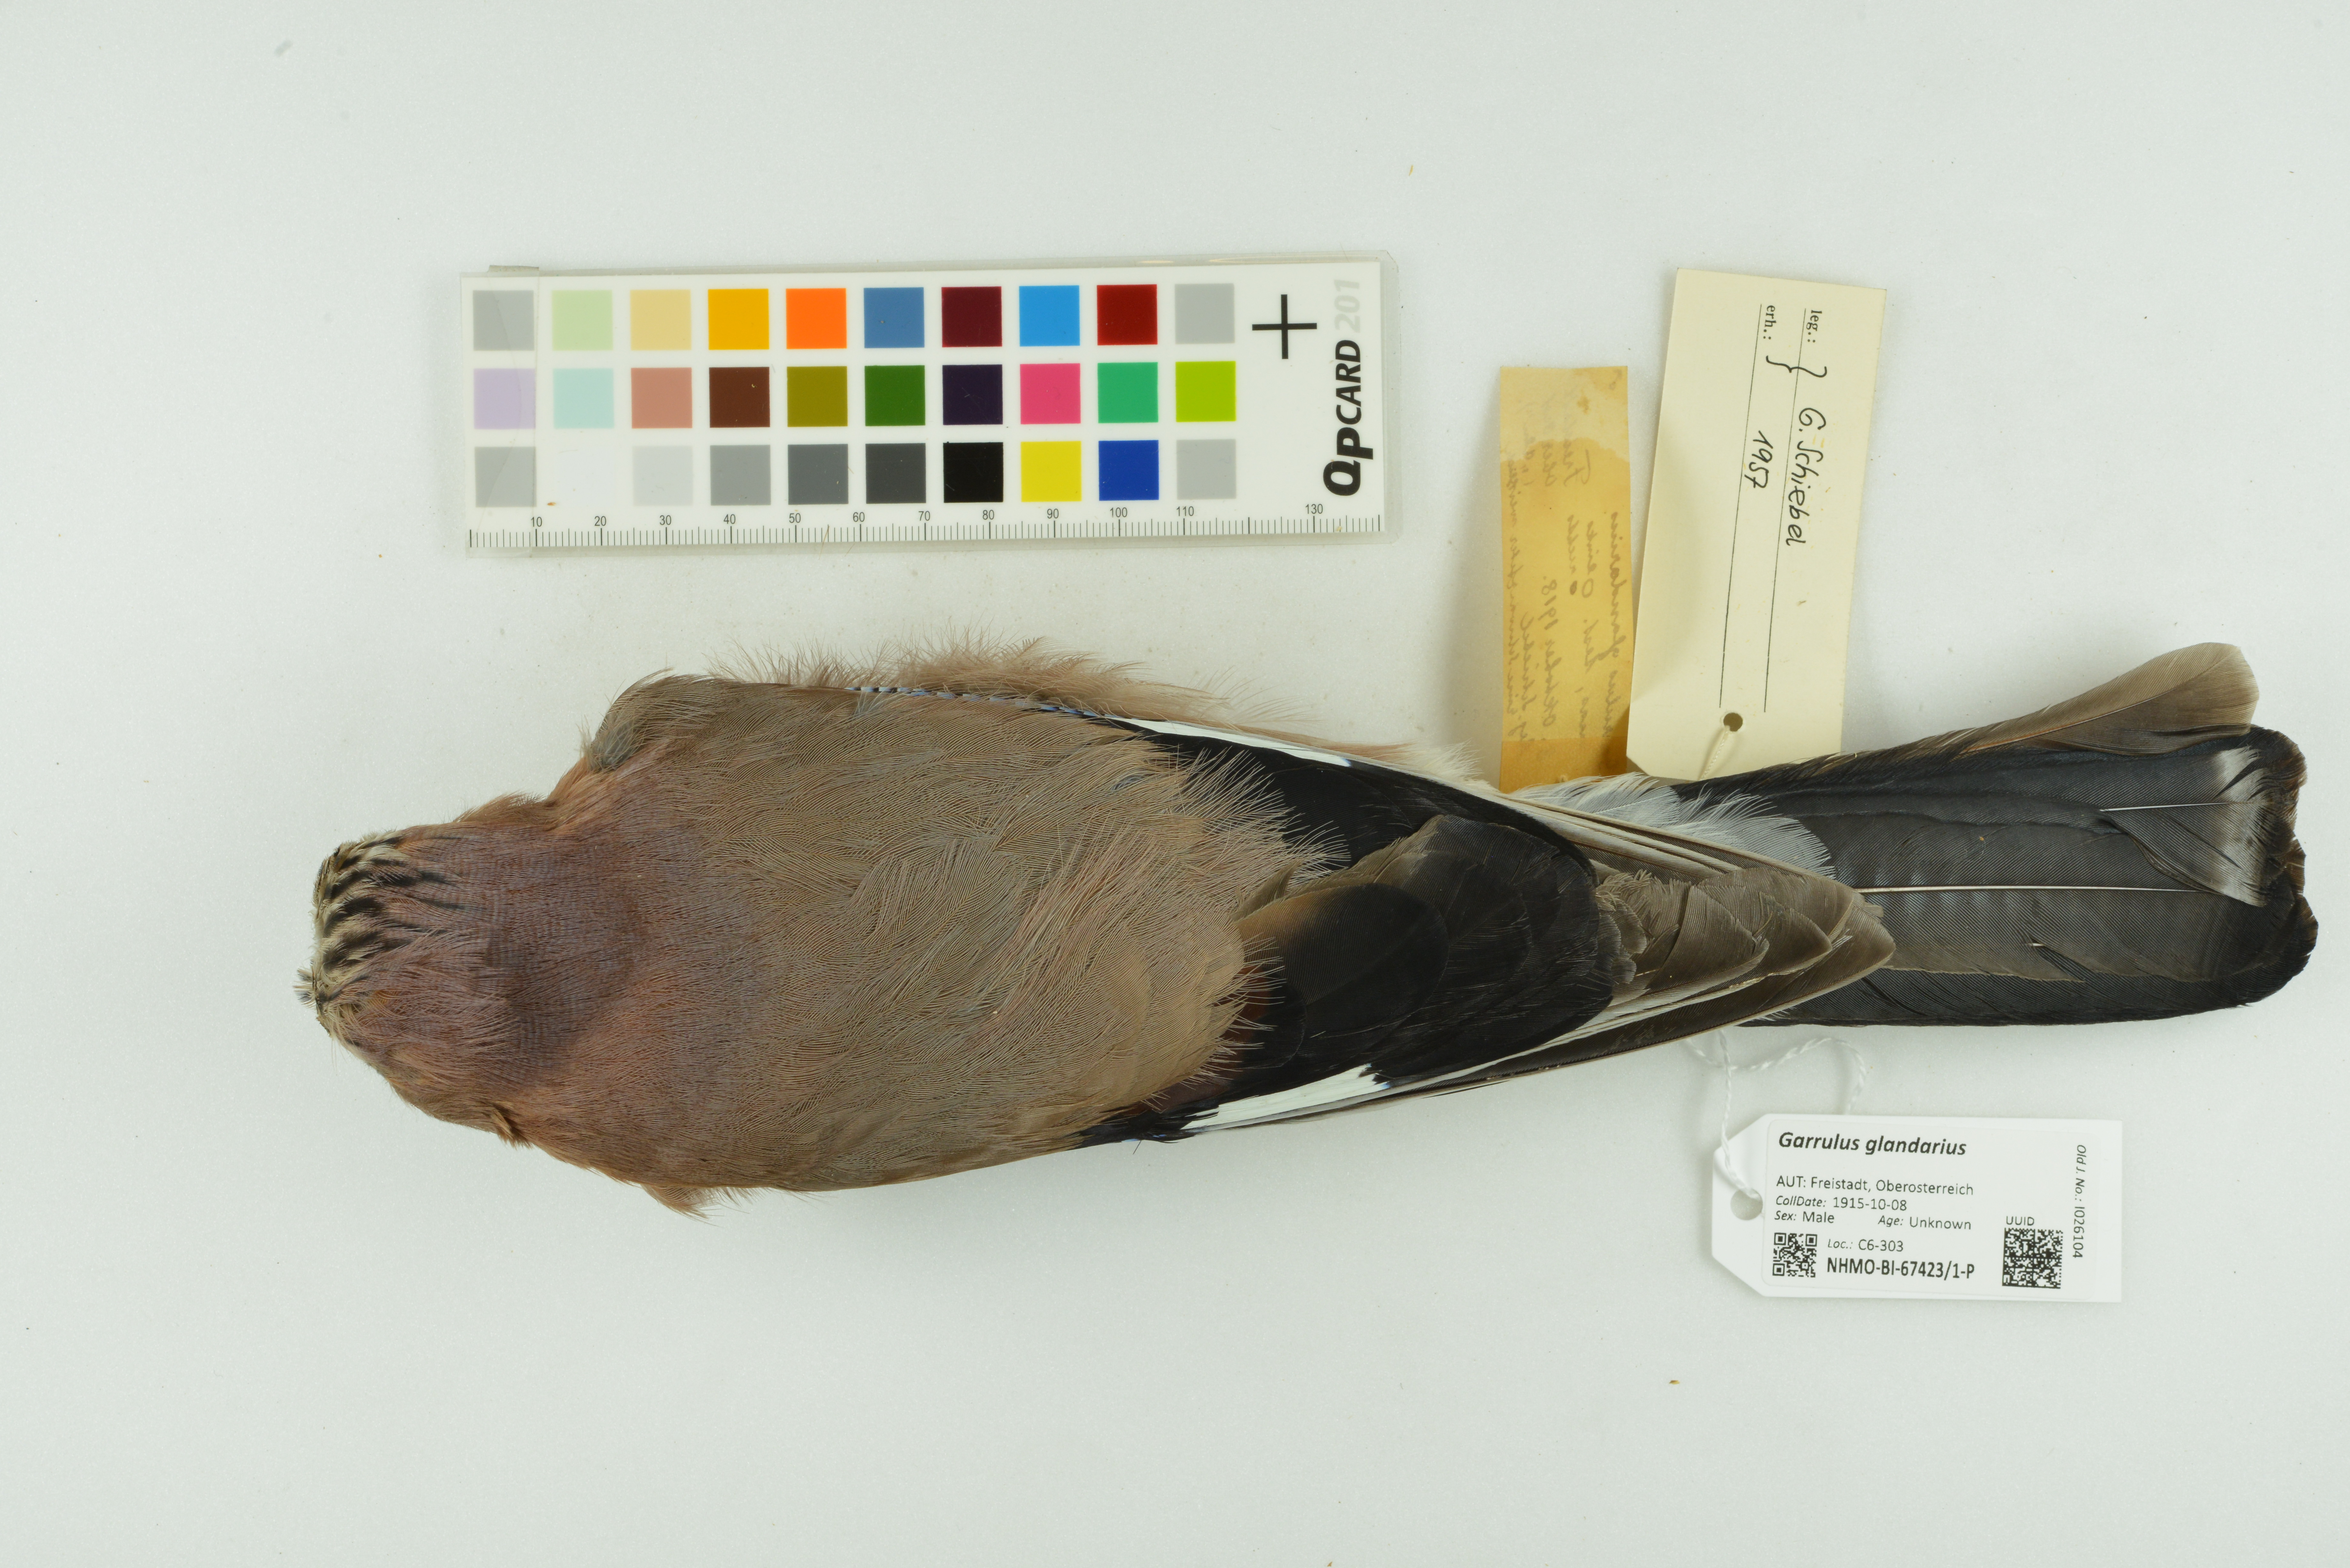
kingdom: Animalia
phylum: Chordata
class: Aves
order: Passeriformes
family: Corvidae
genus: Garrulus
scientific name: Garrulus glandarius
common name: Eurasian jay
